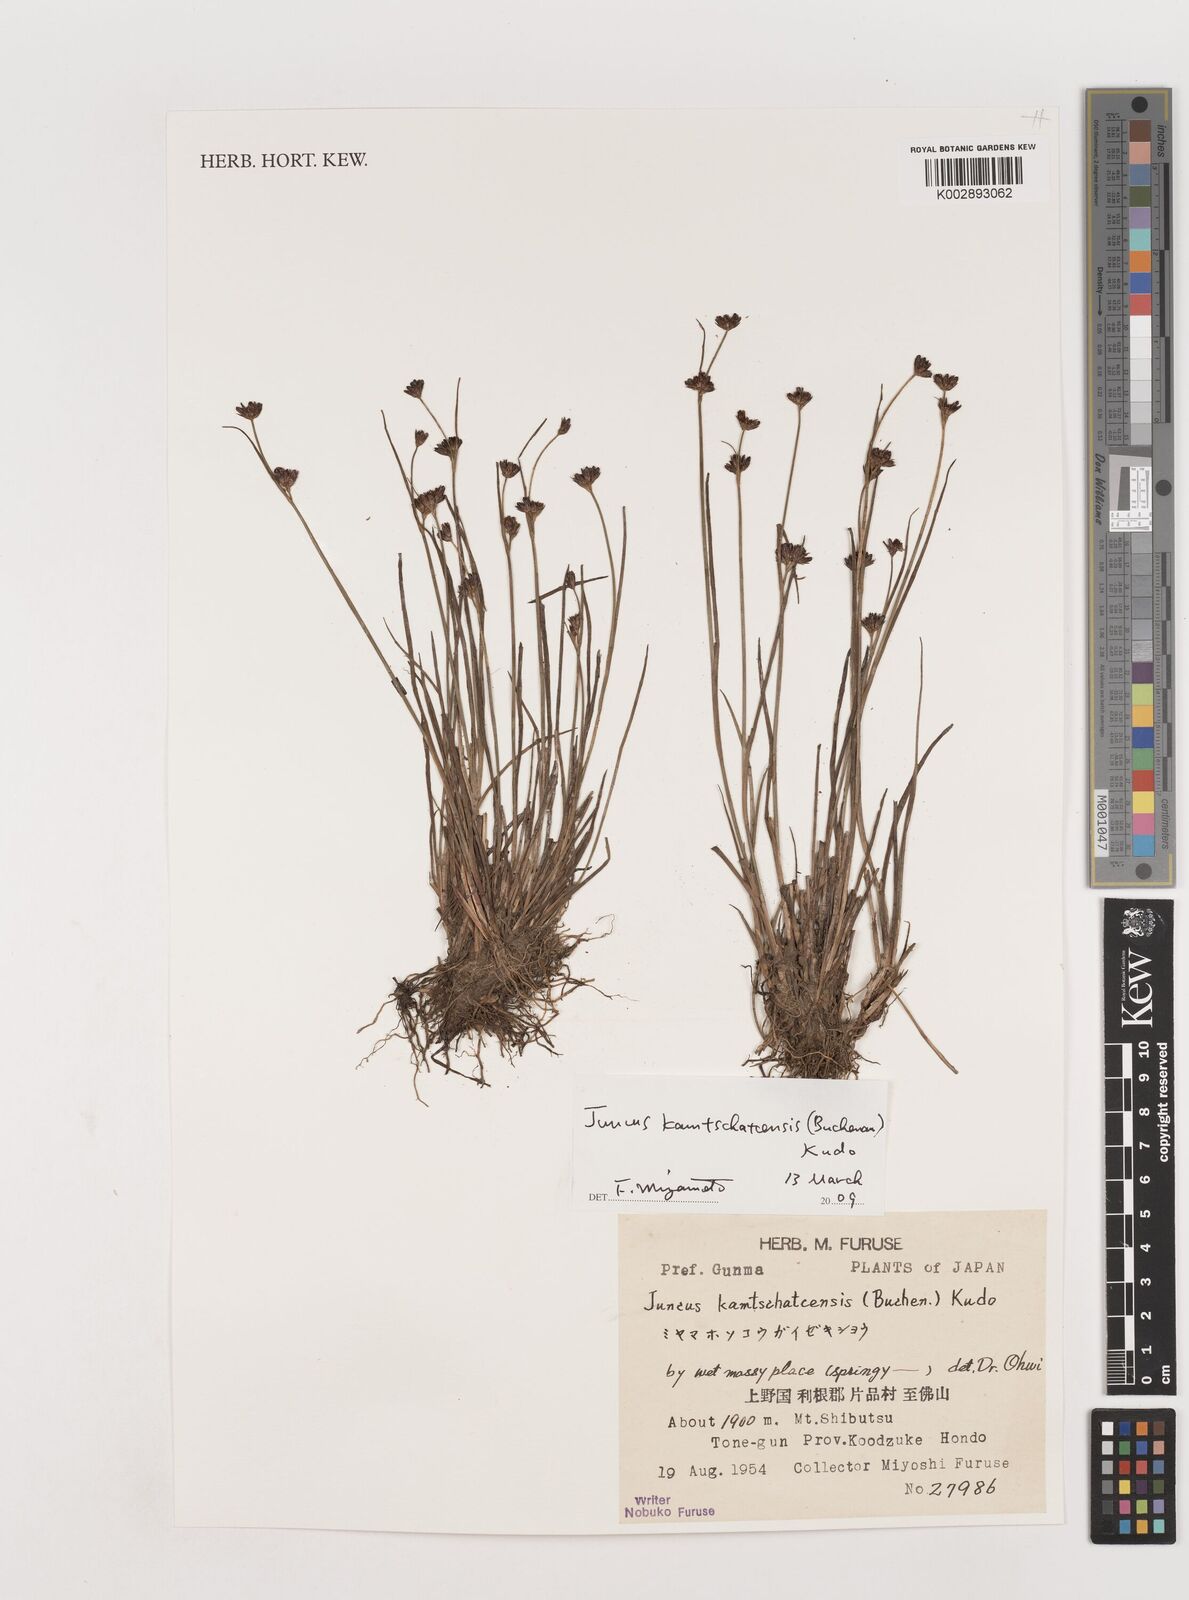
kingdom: Plantae
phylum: Tracheophyta
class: Liliopsida
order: Poales
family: Juncaceae
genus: Juncus
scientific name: Juncus fauriensis
